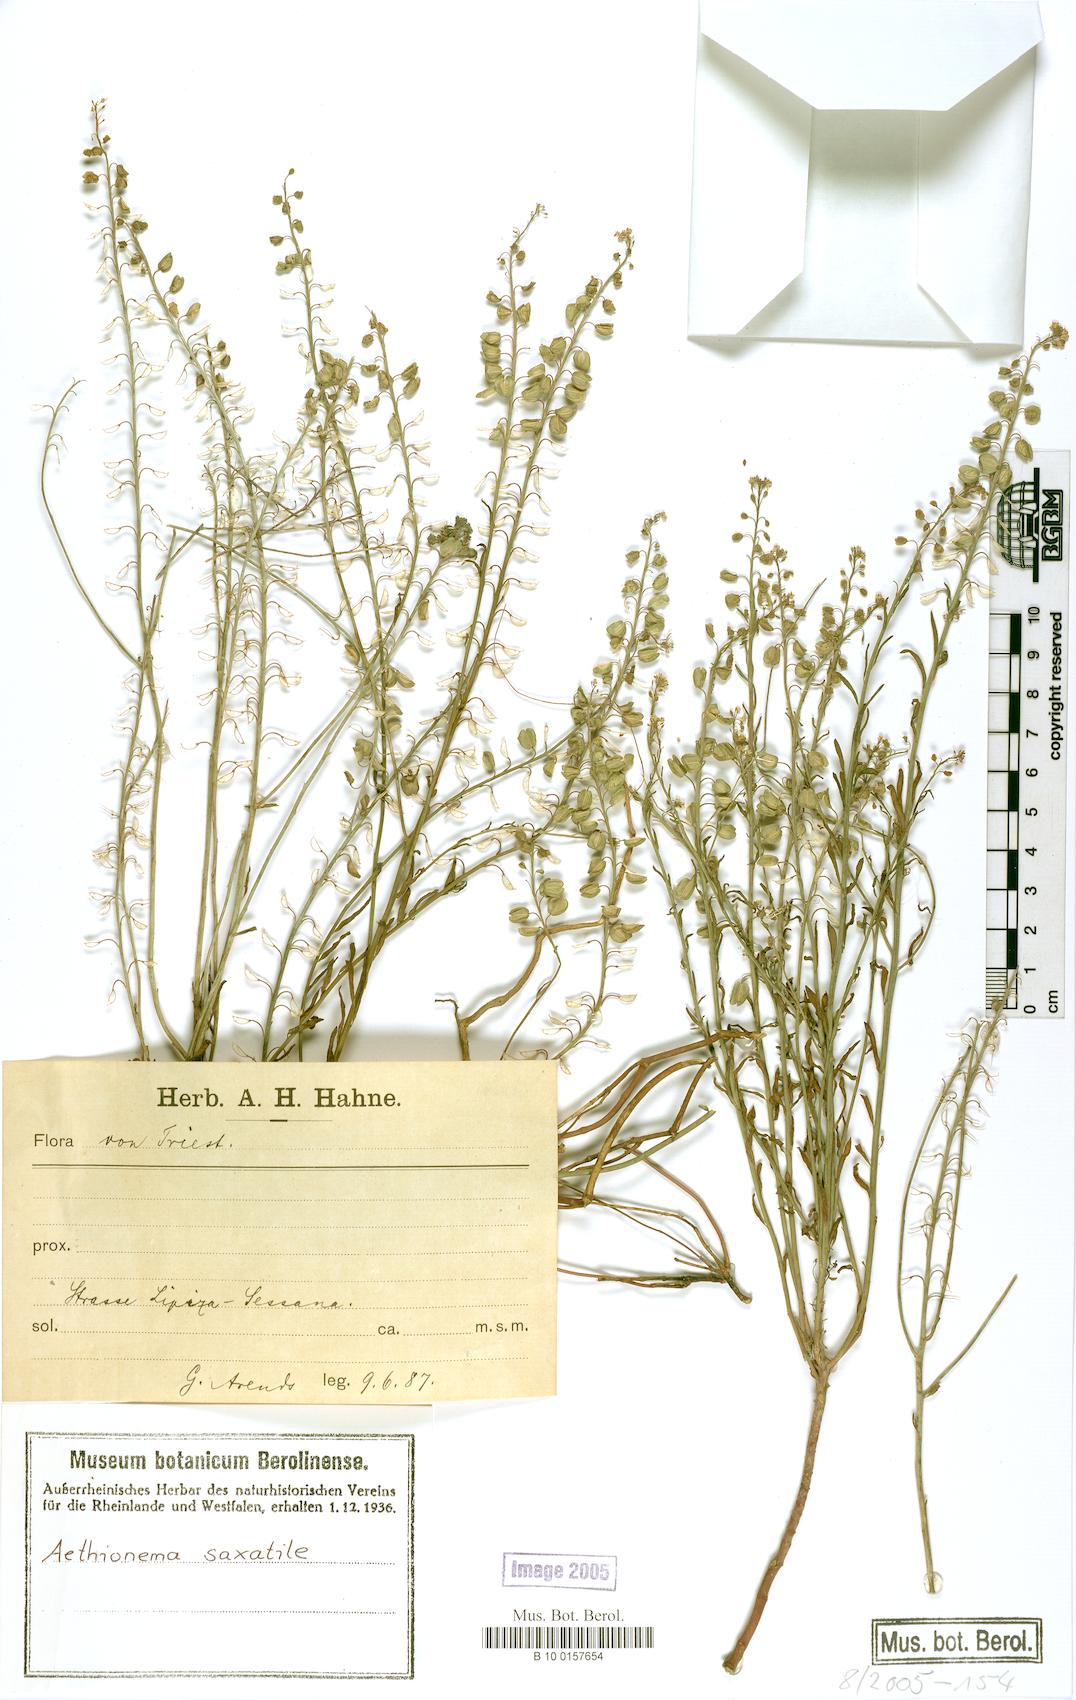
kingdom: Plantae
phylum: Tracheophyta
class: Magnoliopsida
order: Brassicales
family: Brassicaceae
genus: Aethionema
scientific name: Aethionema saxatile
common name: Burnt candytuft
